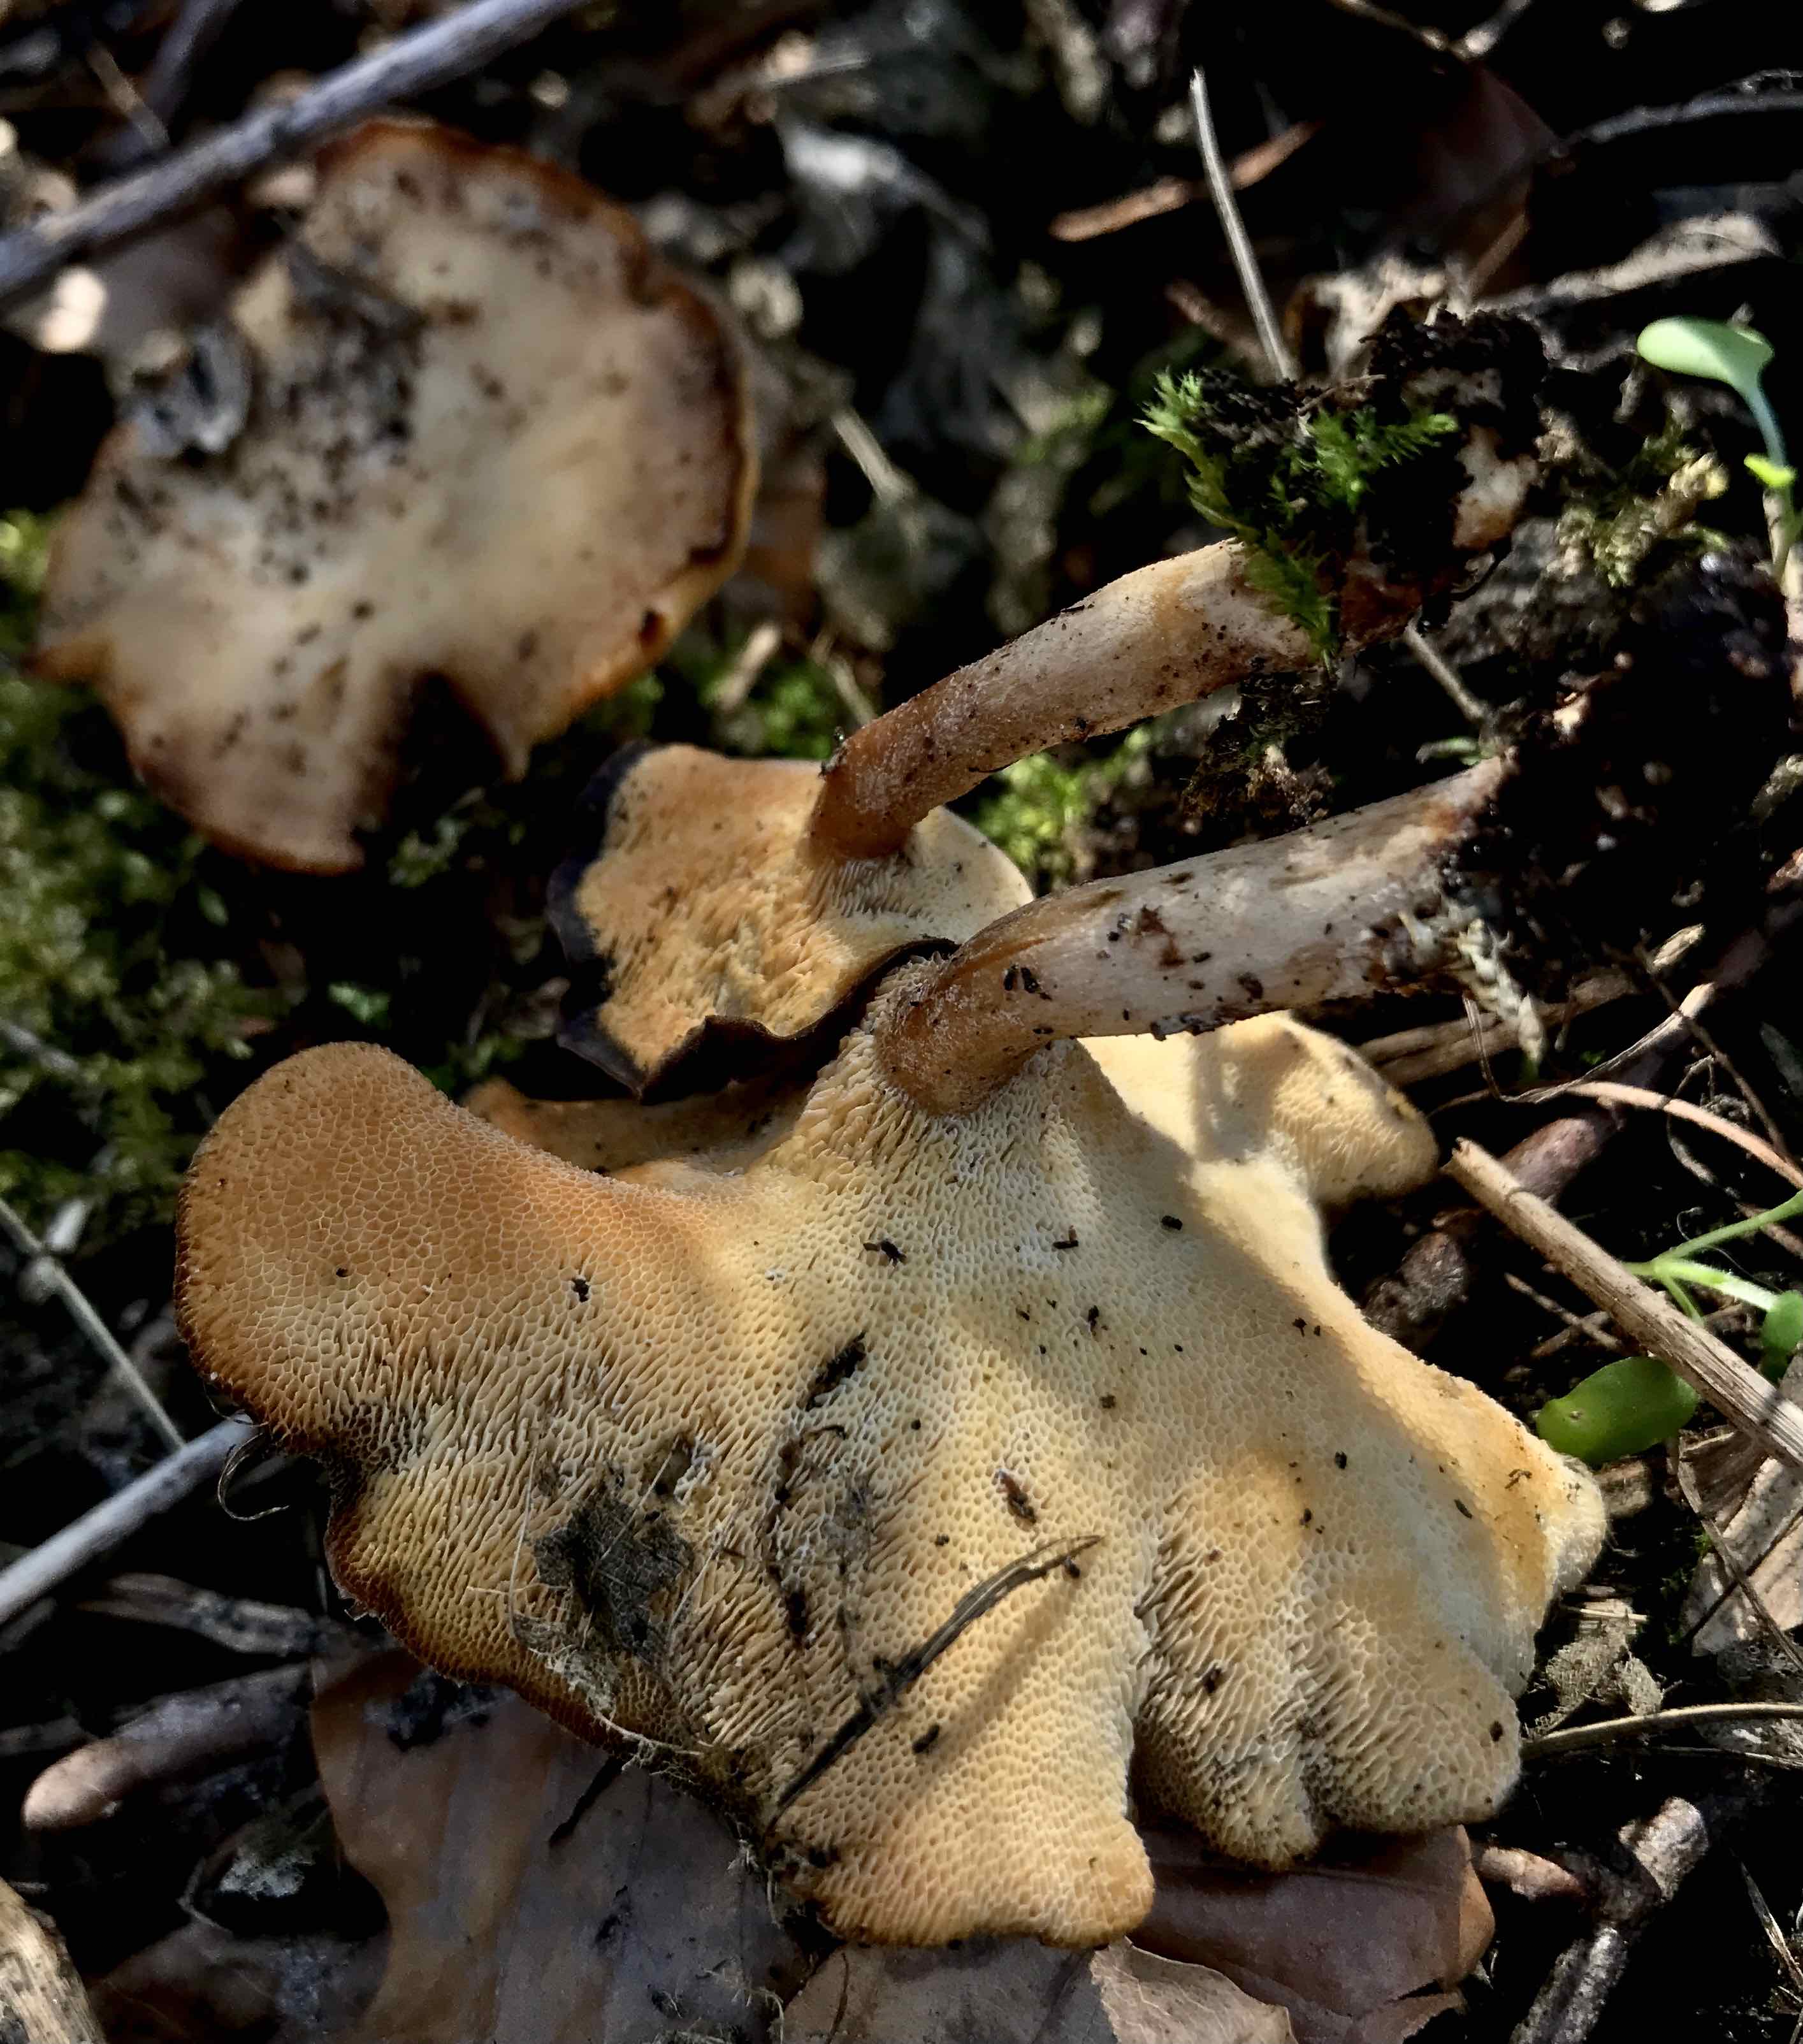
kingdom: Fungi
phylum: Basidiomycota
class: Agaricomycetes
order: Polyporales
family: Polyporaceae
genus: Lentinus
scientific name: Lentinus brumalis
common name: vinter-stilkporesvamp
